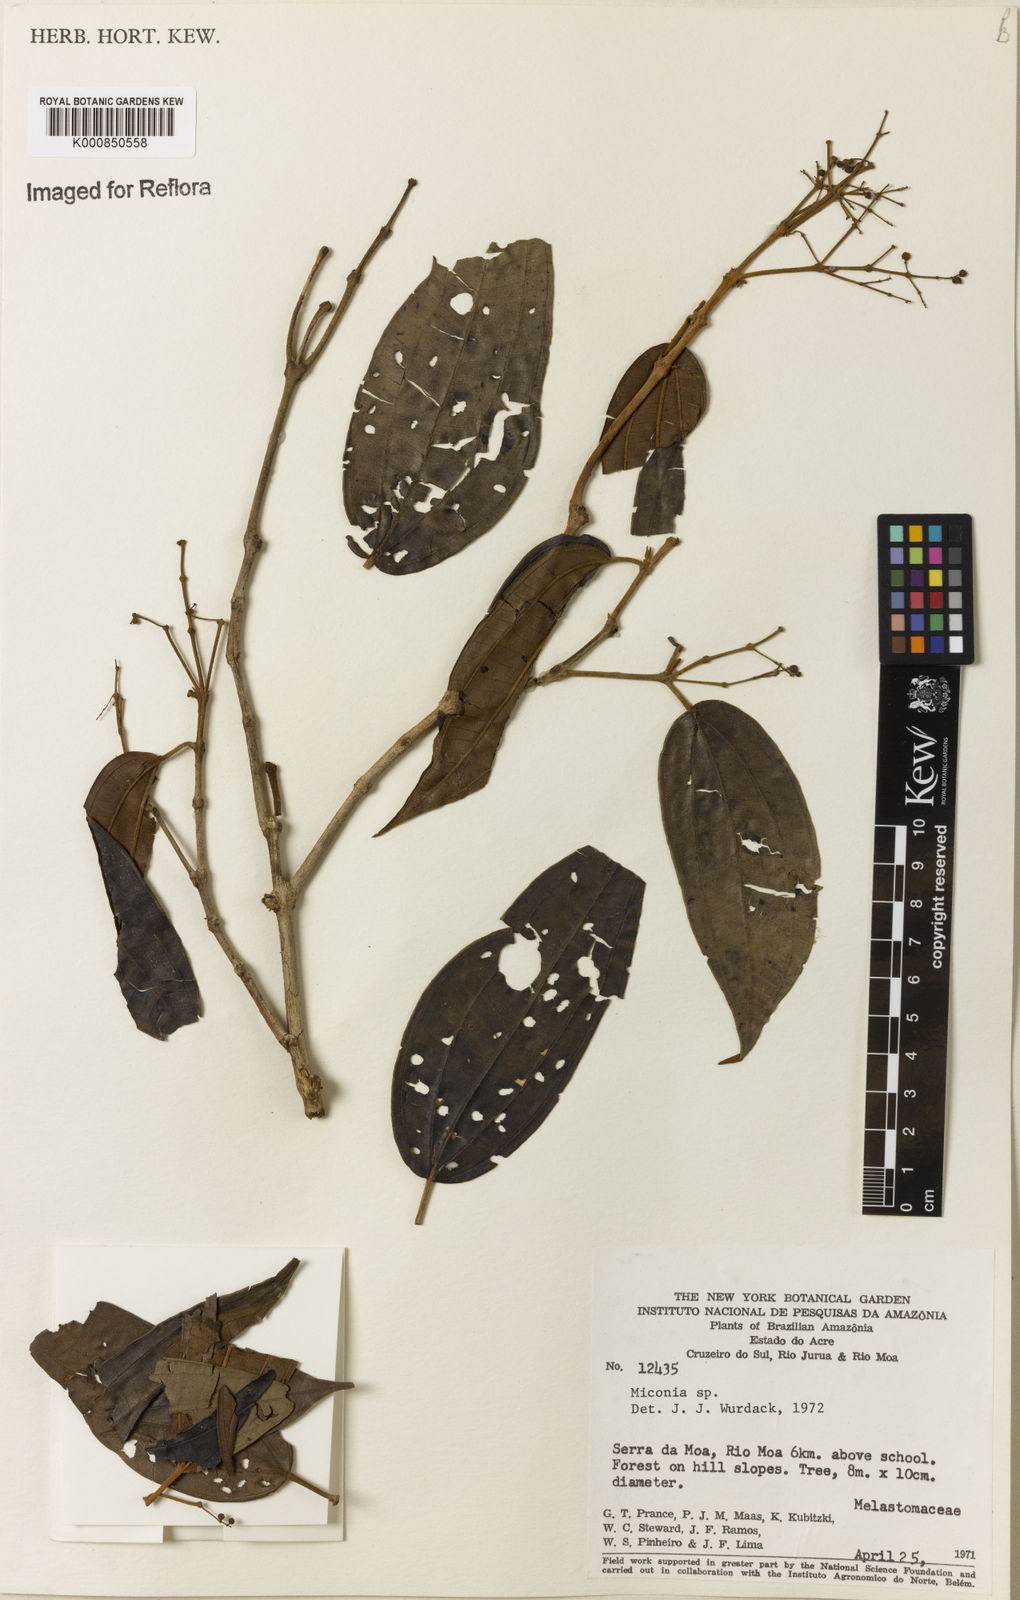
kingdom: Plantae
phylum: Tracheophyta
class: Magnoliopsida
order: Myrtales
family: Melastomataceae
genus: Miconia
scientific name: Miconia
